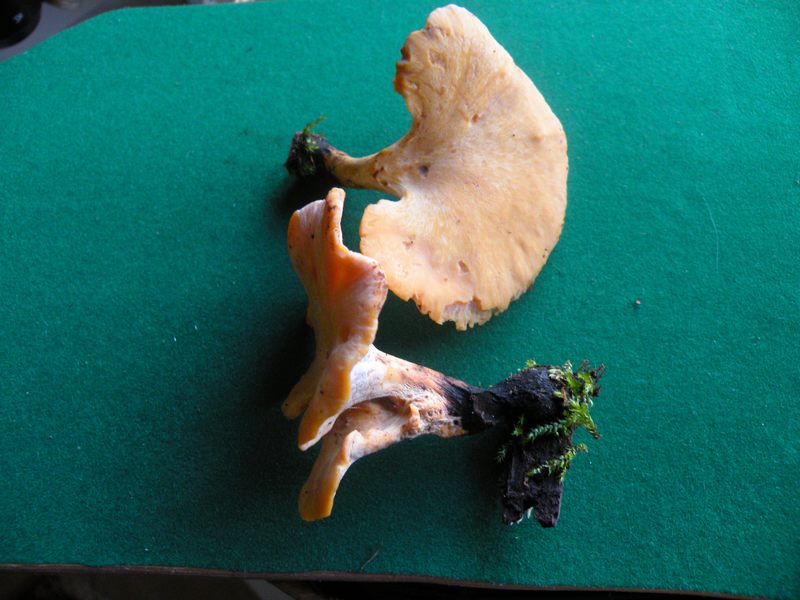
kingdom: Fungi
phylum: Basidiomycota
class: Agaricomycetes
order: Polyporales
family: Polyporaceae
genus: Cerioporus
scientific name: Cerioporus varius
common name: foranderlig stilkporesvamp
